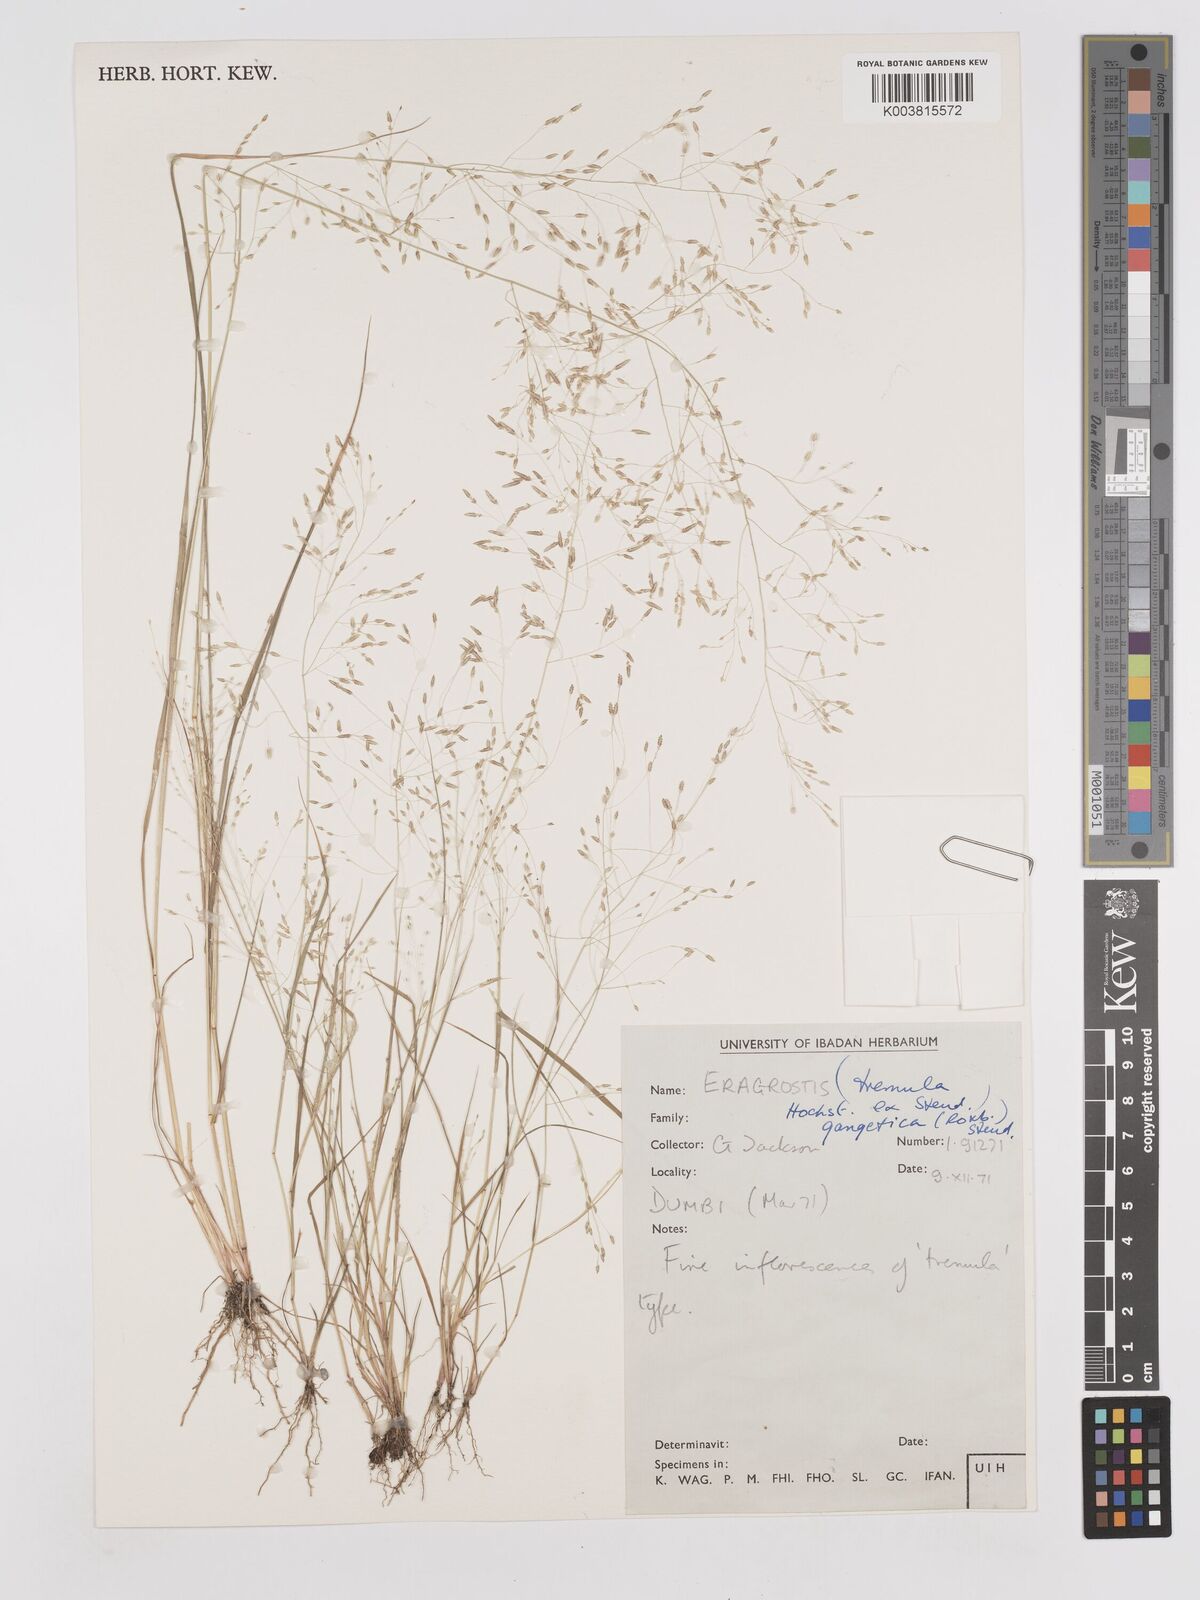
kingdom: Plantae
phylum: Tracheophyta
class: Liliopsida
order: Poales
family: Poaceae
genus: Eragrostis
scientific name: Eragrostis tremula
